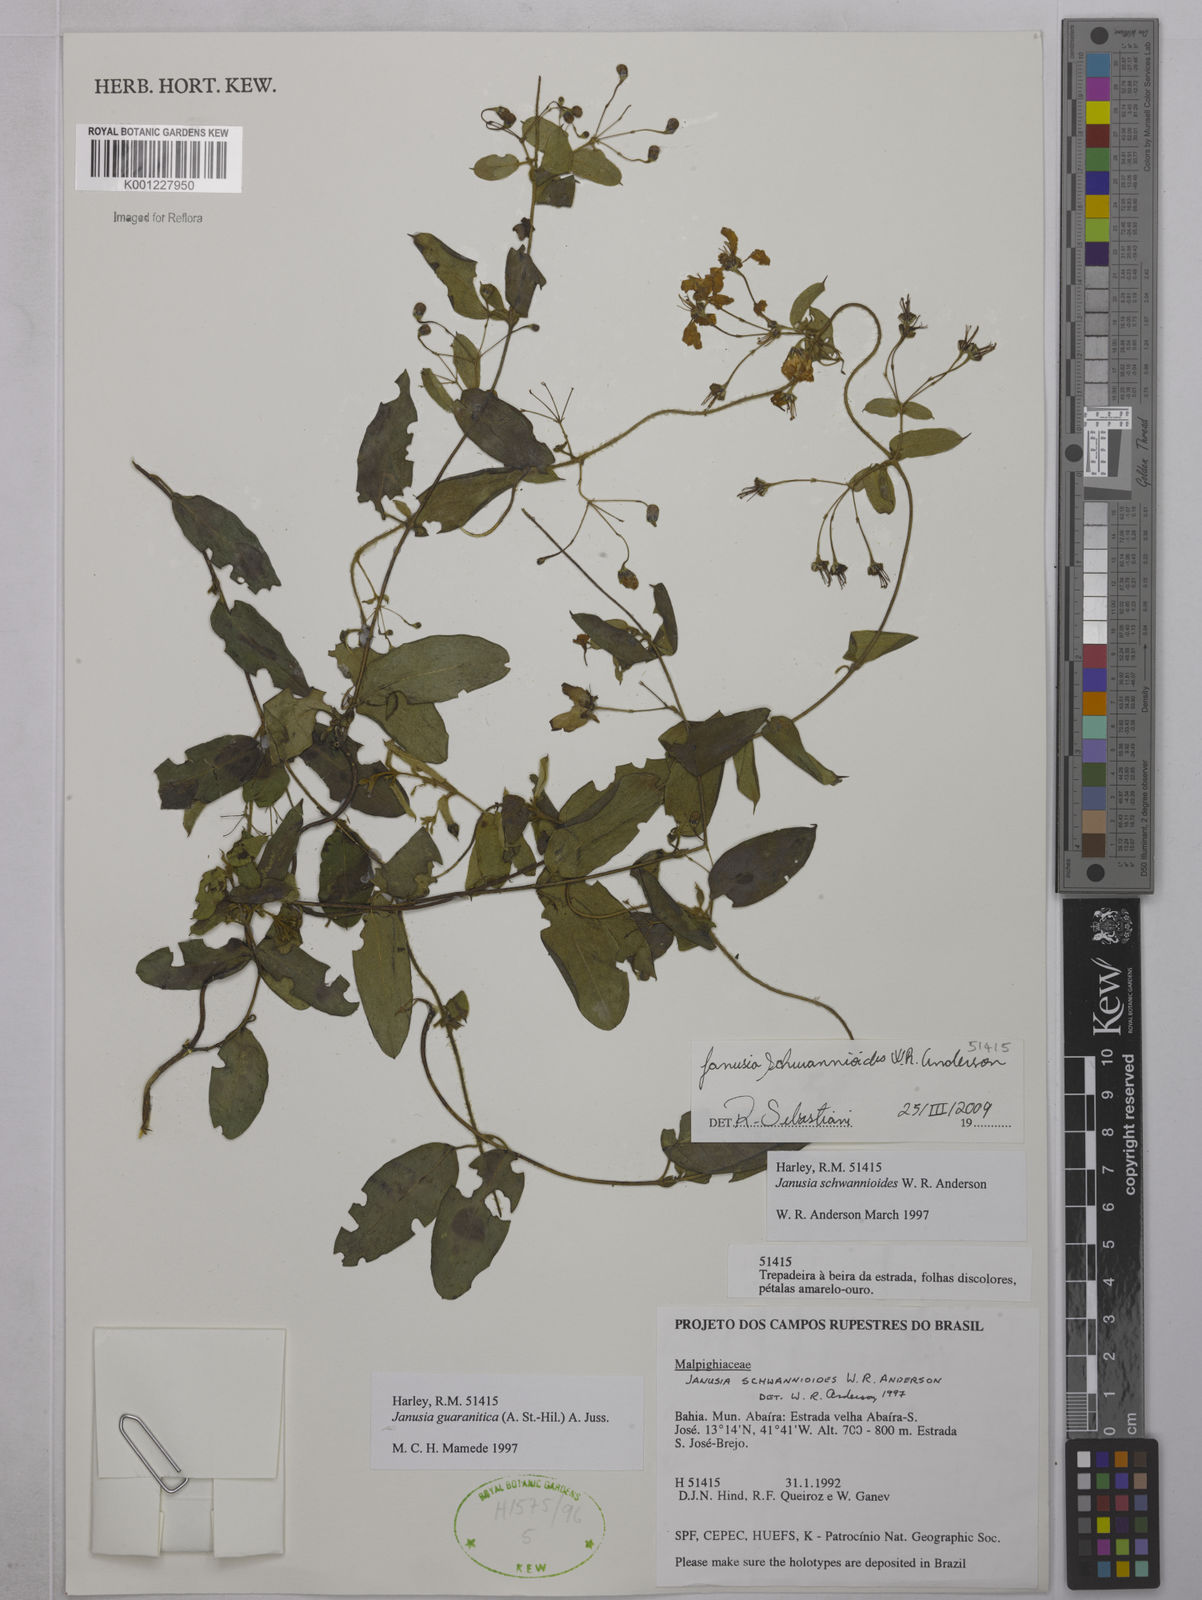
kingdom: Plantae
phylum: Tracheophyta
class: Magnoliopsida
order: Malpighiales
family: Malpighiaceae
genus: Janusia
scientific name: Janusia schwannioides
